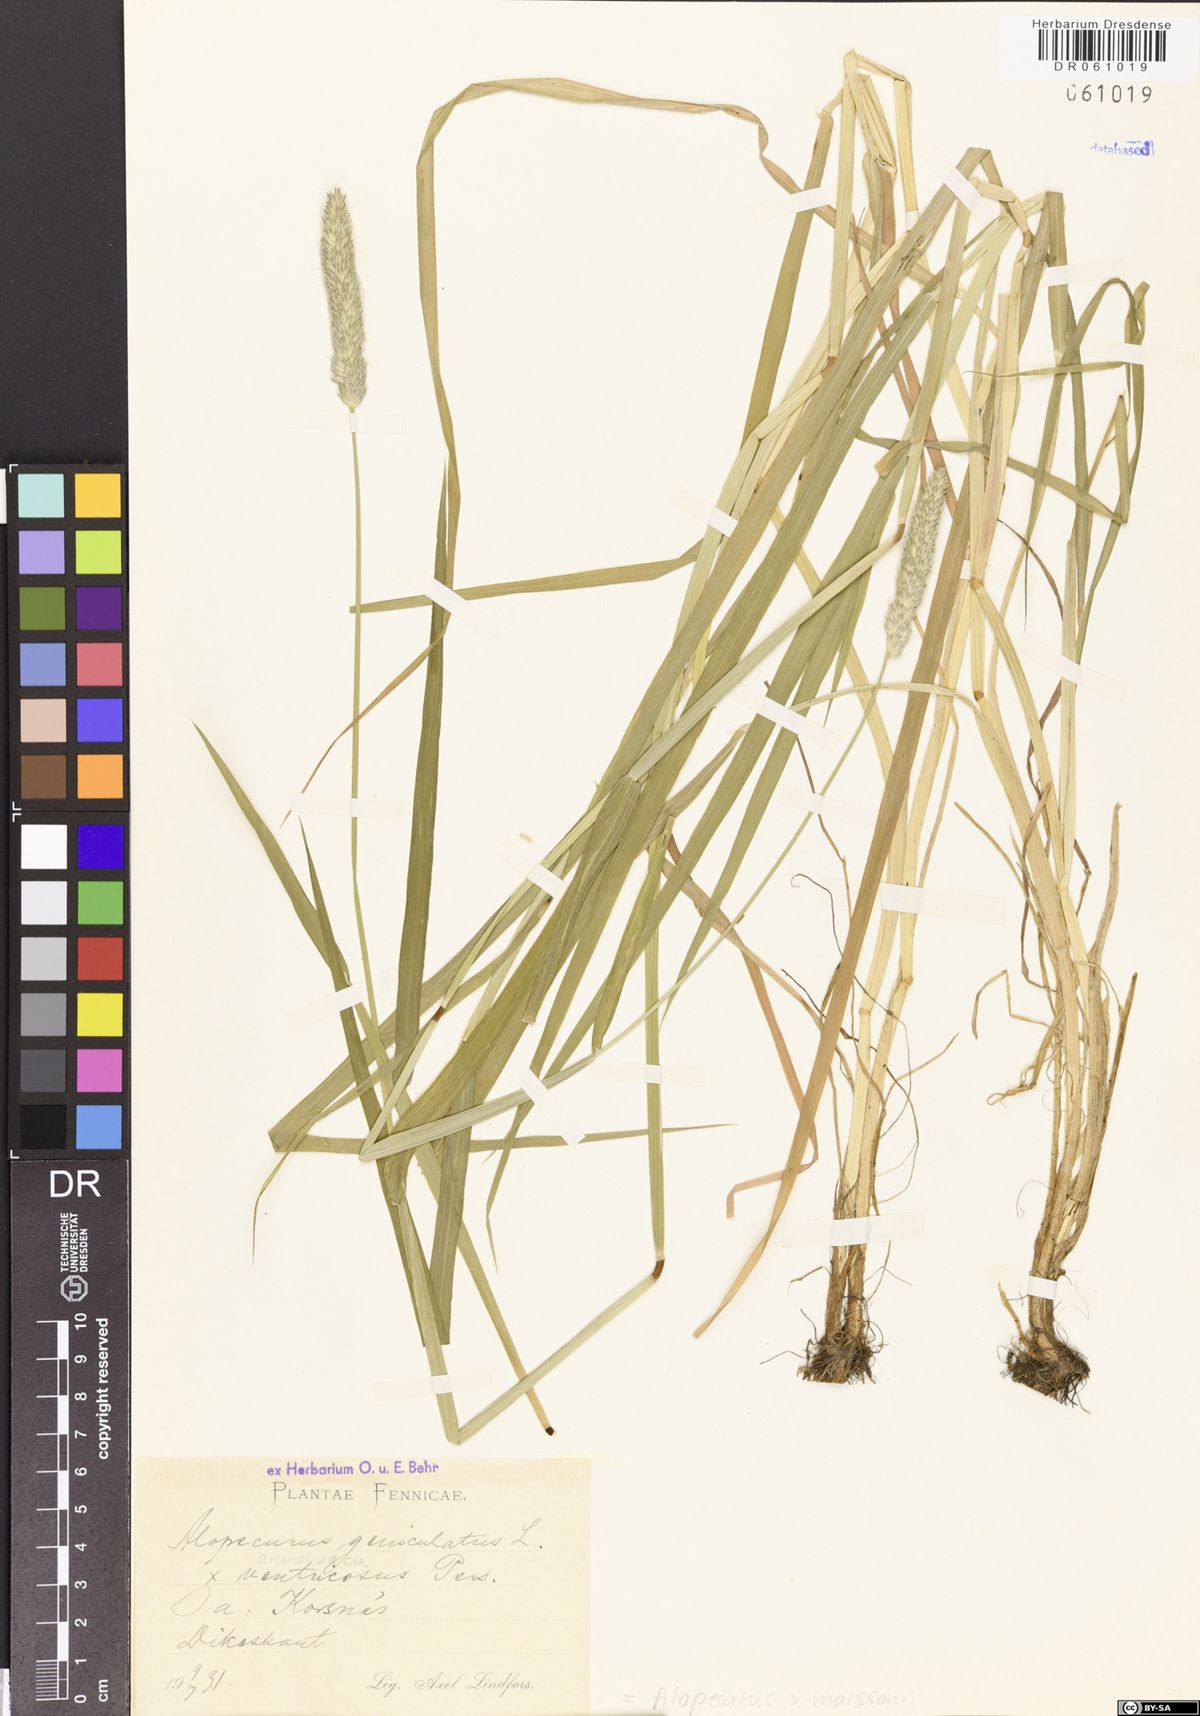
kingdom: Plantae
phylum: Tracheophyta
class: Liliopsida
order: Poales
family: Poaceae
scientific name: Poaceae
